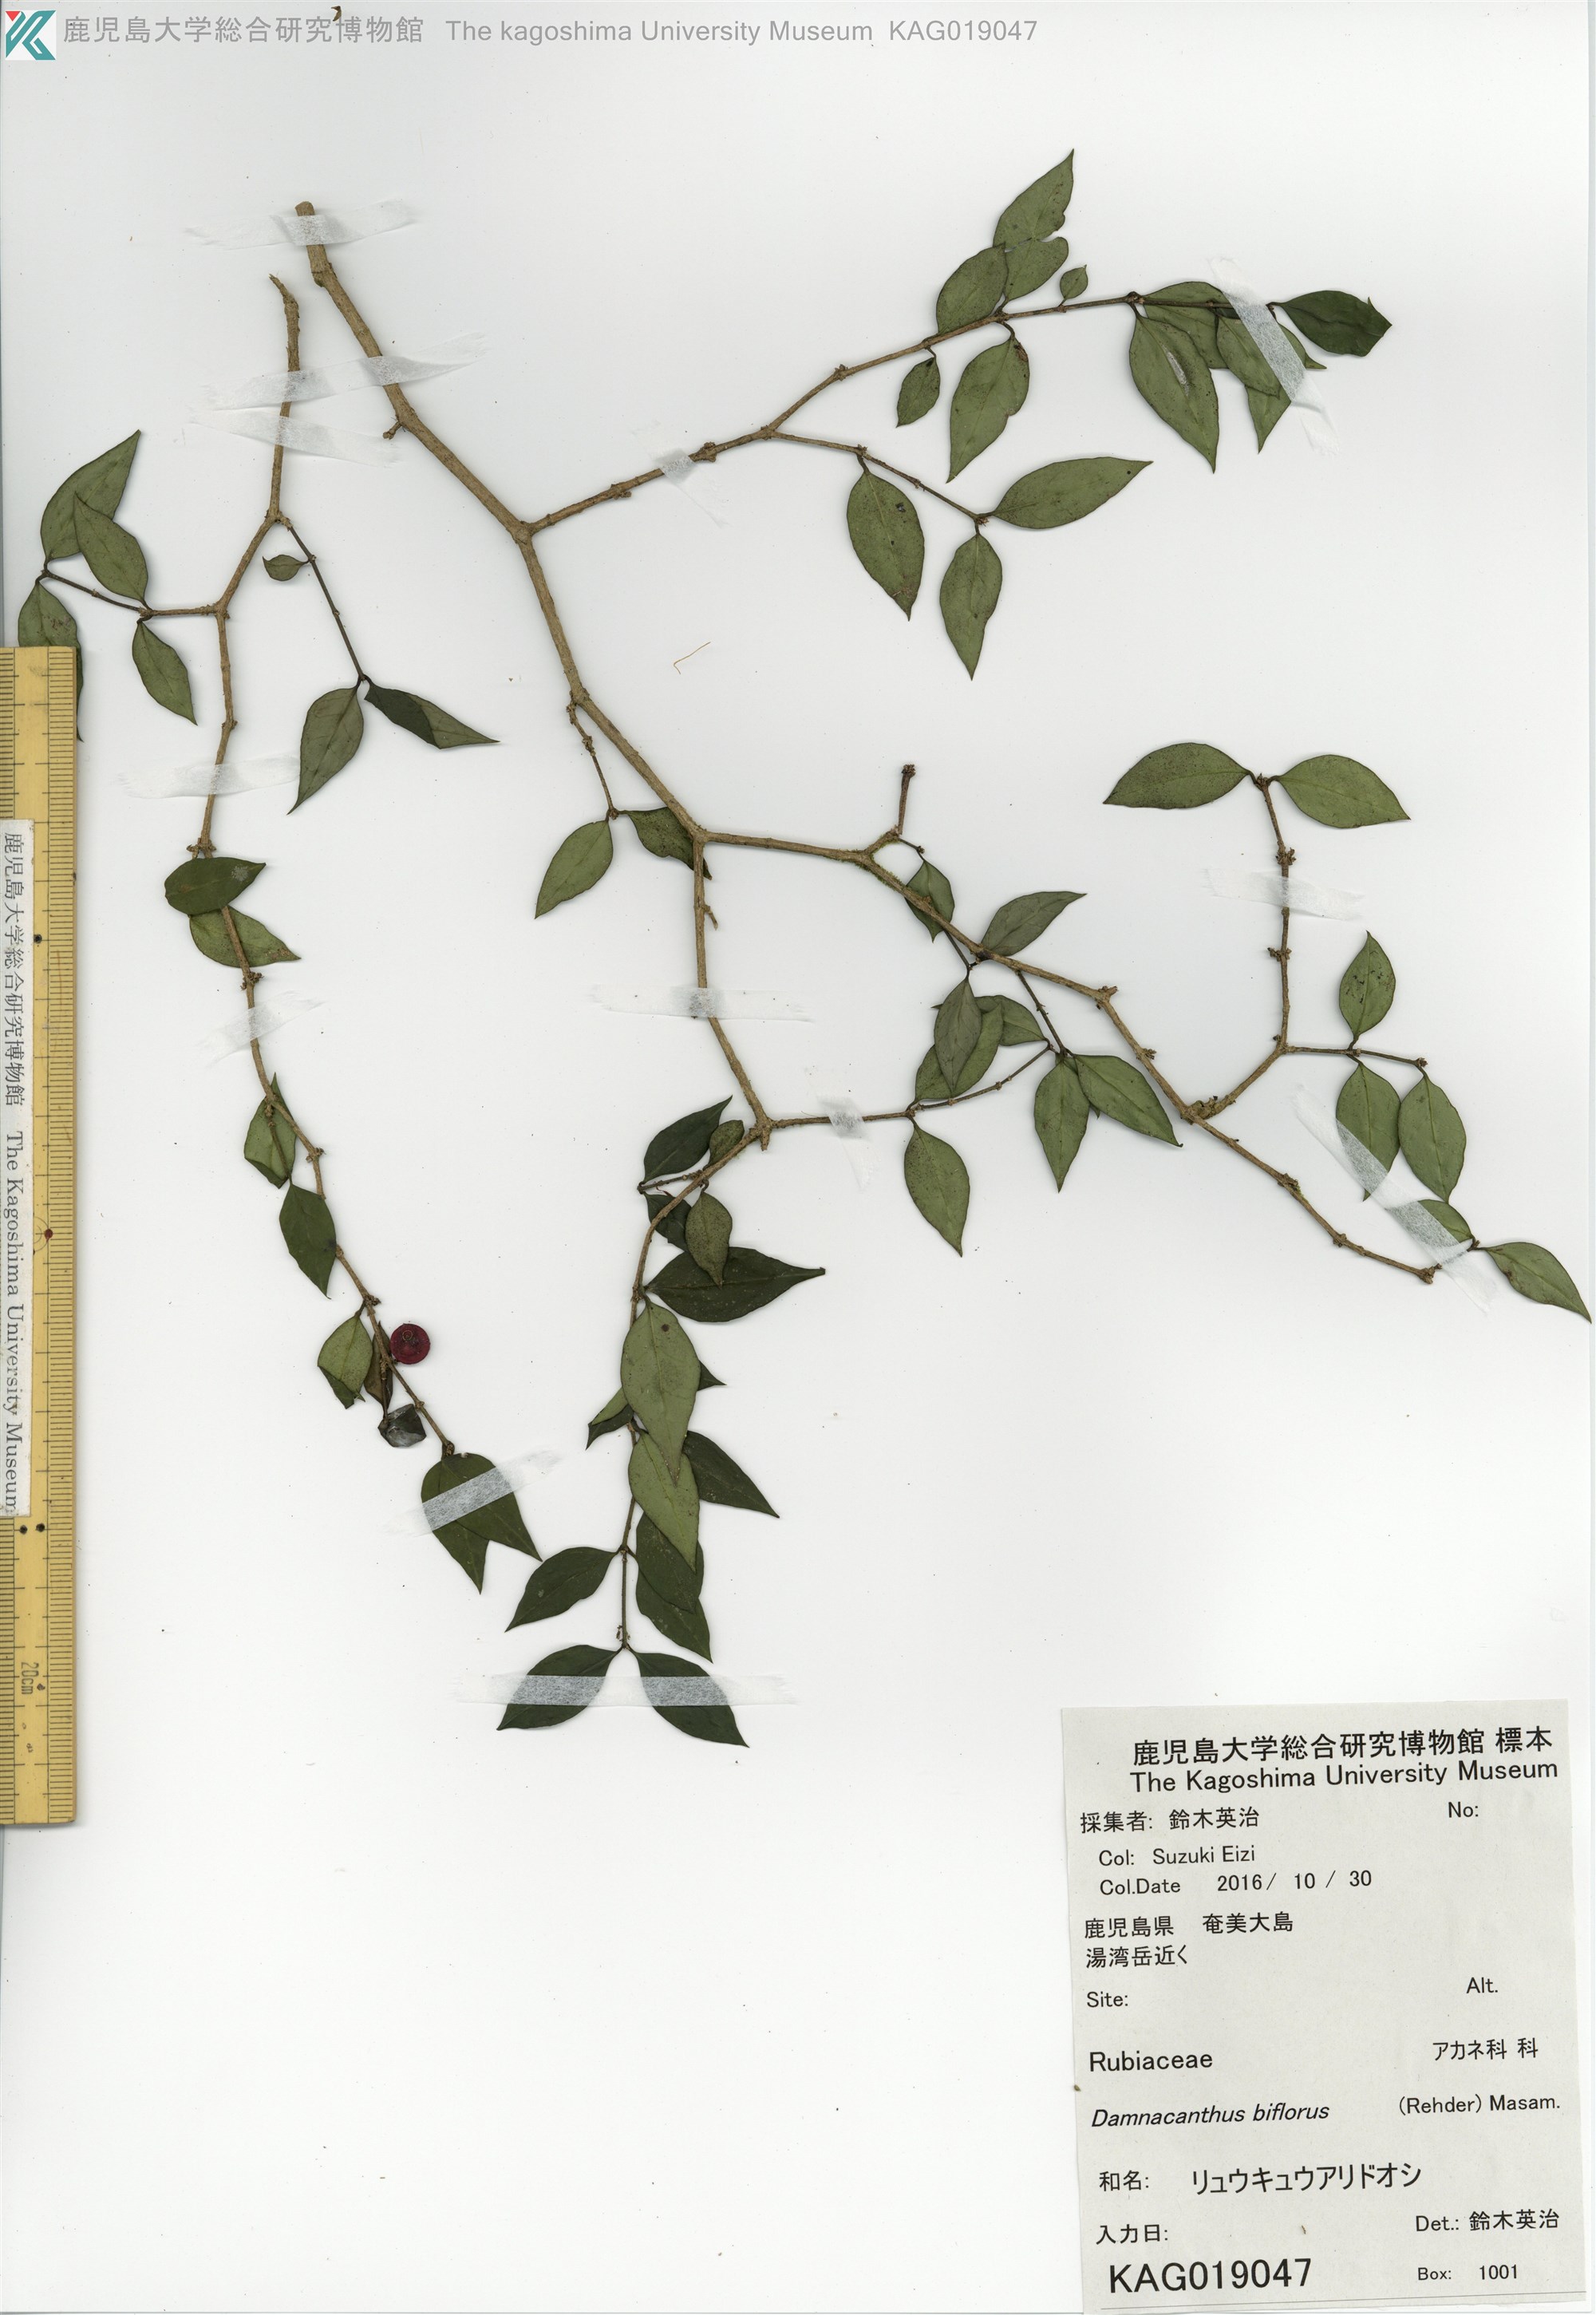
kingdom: Plantae
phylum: Tracheophyta
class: Magnoliopsida
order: Gentianales
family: Rubiaceae
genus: Damnacanthus
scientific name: Damnacanthus biflorus
